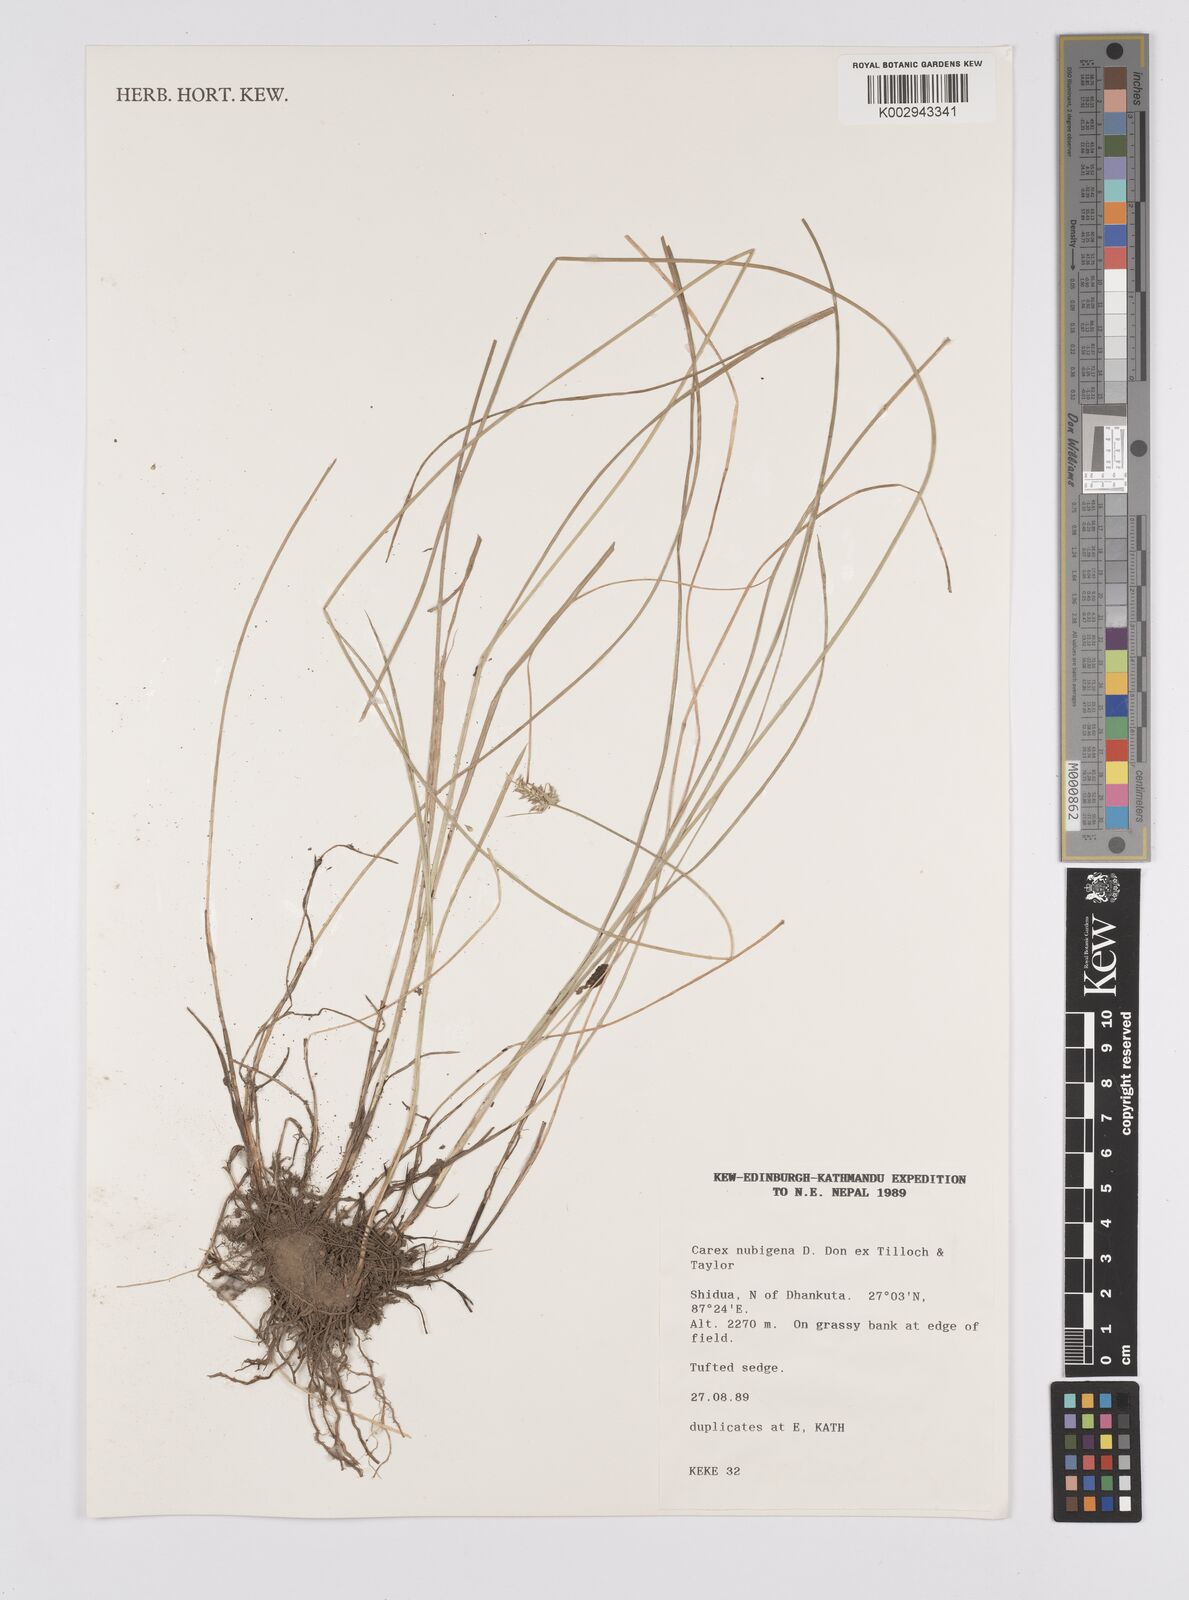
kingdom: Plantae
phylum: Tracheophyta
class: Liliopsida
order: Poales
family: Cyperaceae
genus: Carex
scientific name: Carex nubigena
